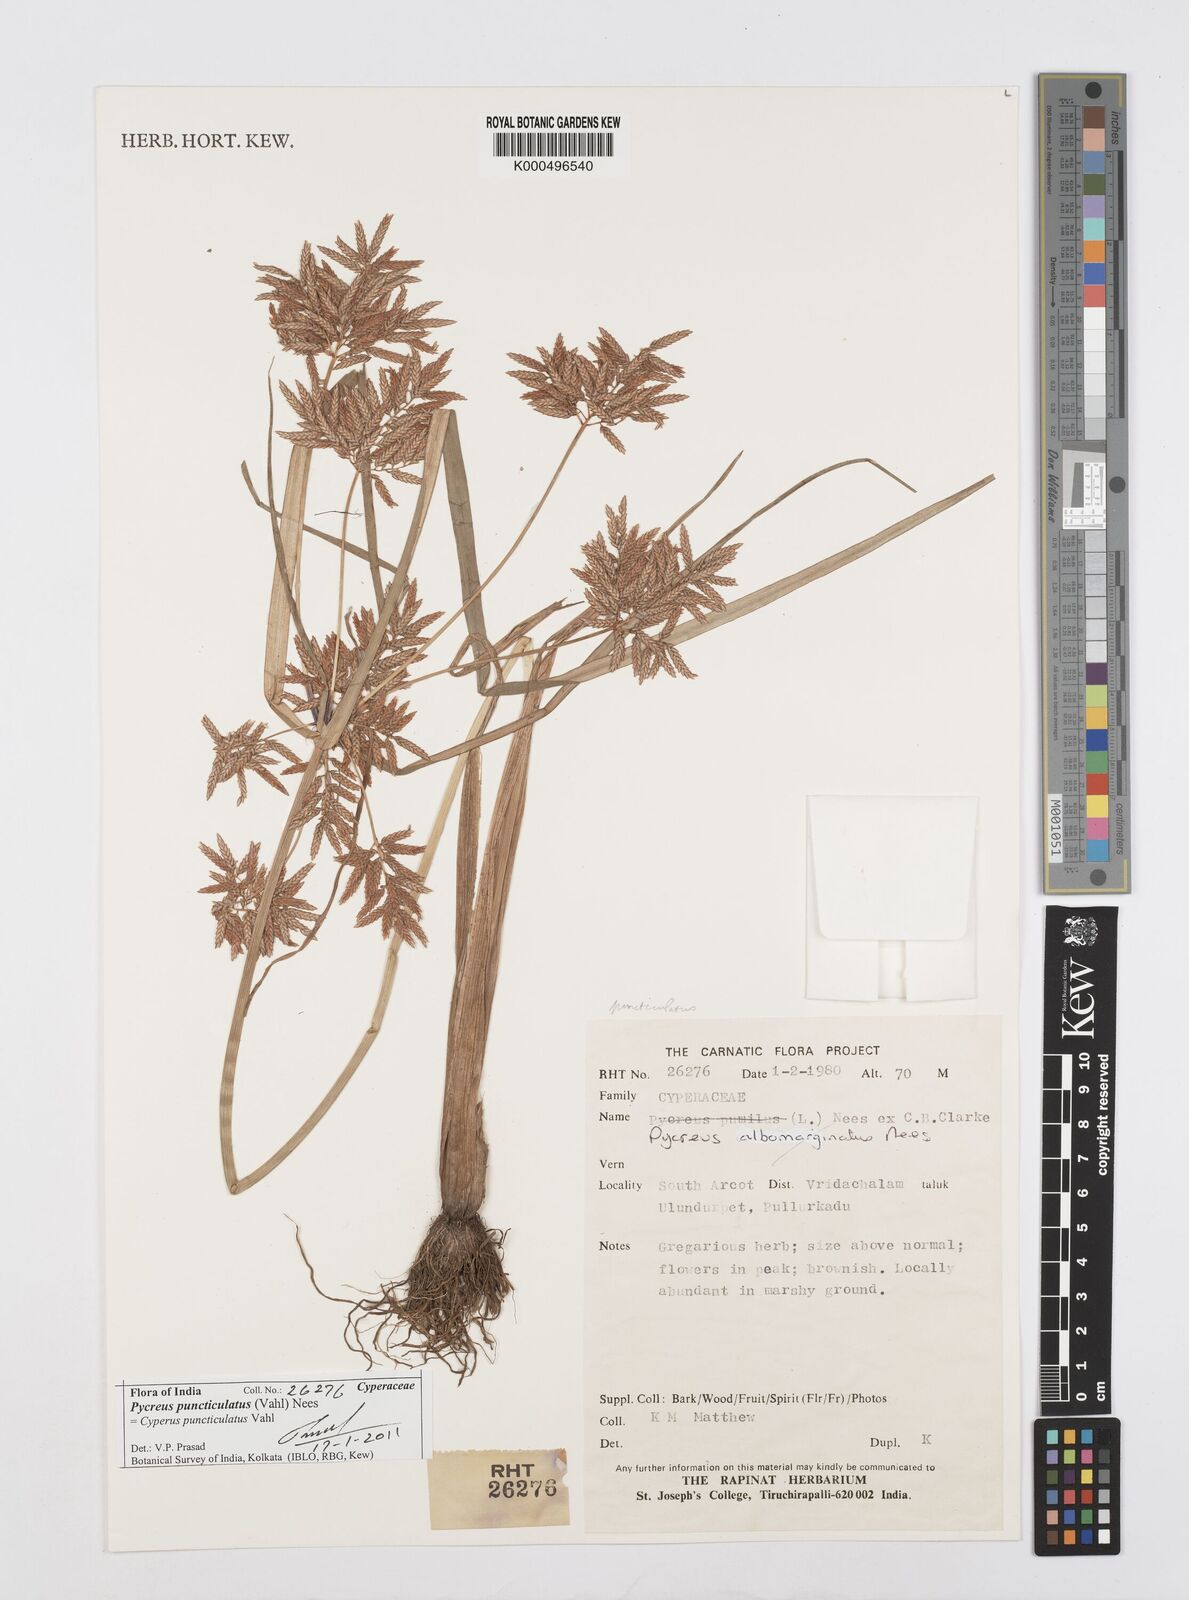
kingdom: Plantae
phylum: Tracheophyta
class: Liliopsida
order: Poales
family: Cyperaceae
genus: Cyperus
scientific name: Cyperus puncticulatus
